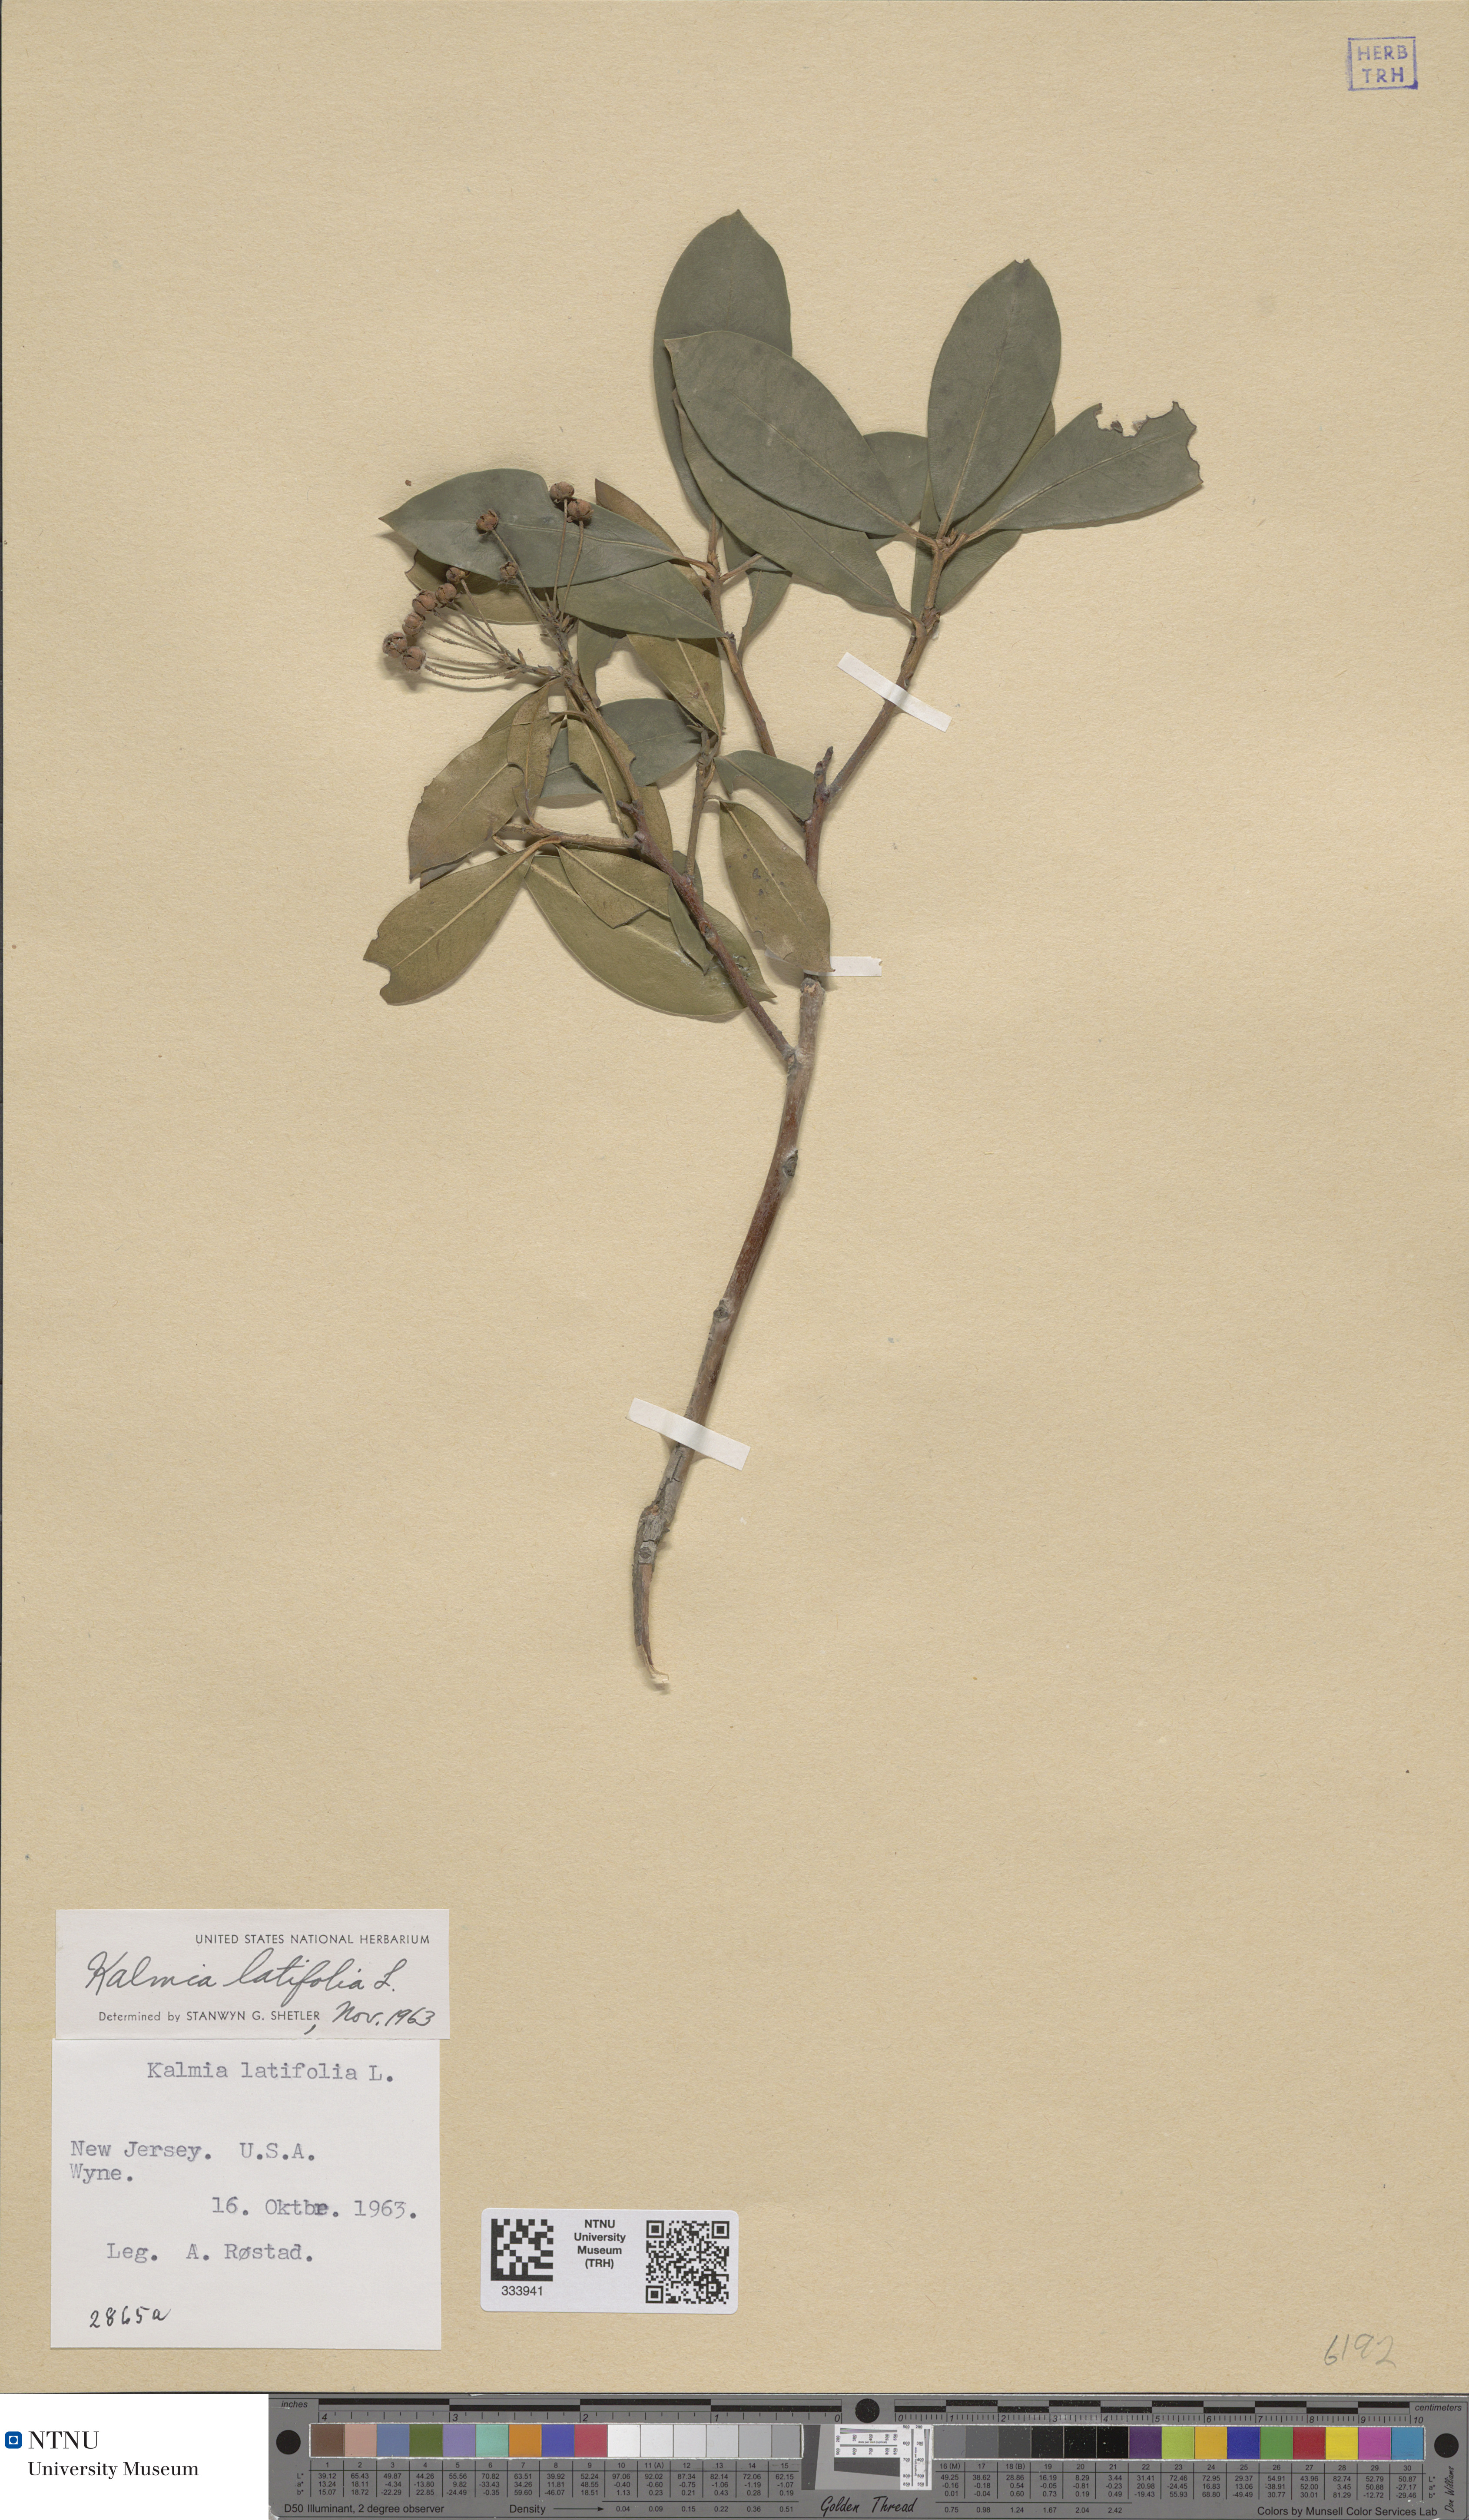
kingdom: Plantae
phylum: Tracheophyta
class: Magnoliopsida
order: Ericales
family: Ericaceae
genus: Kalmia
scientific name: Kalmia latifolia
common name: Mountain-laurel
